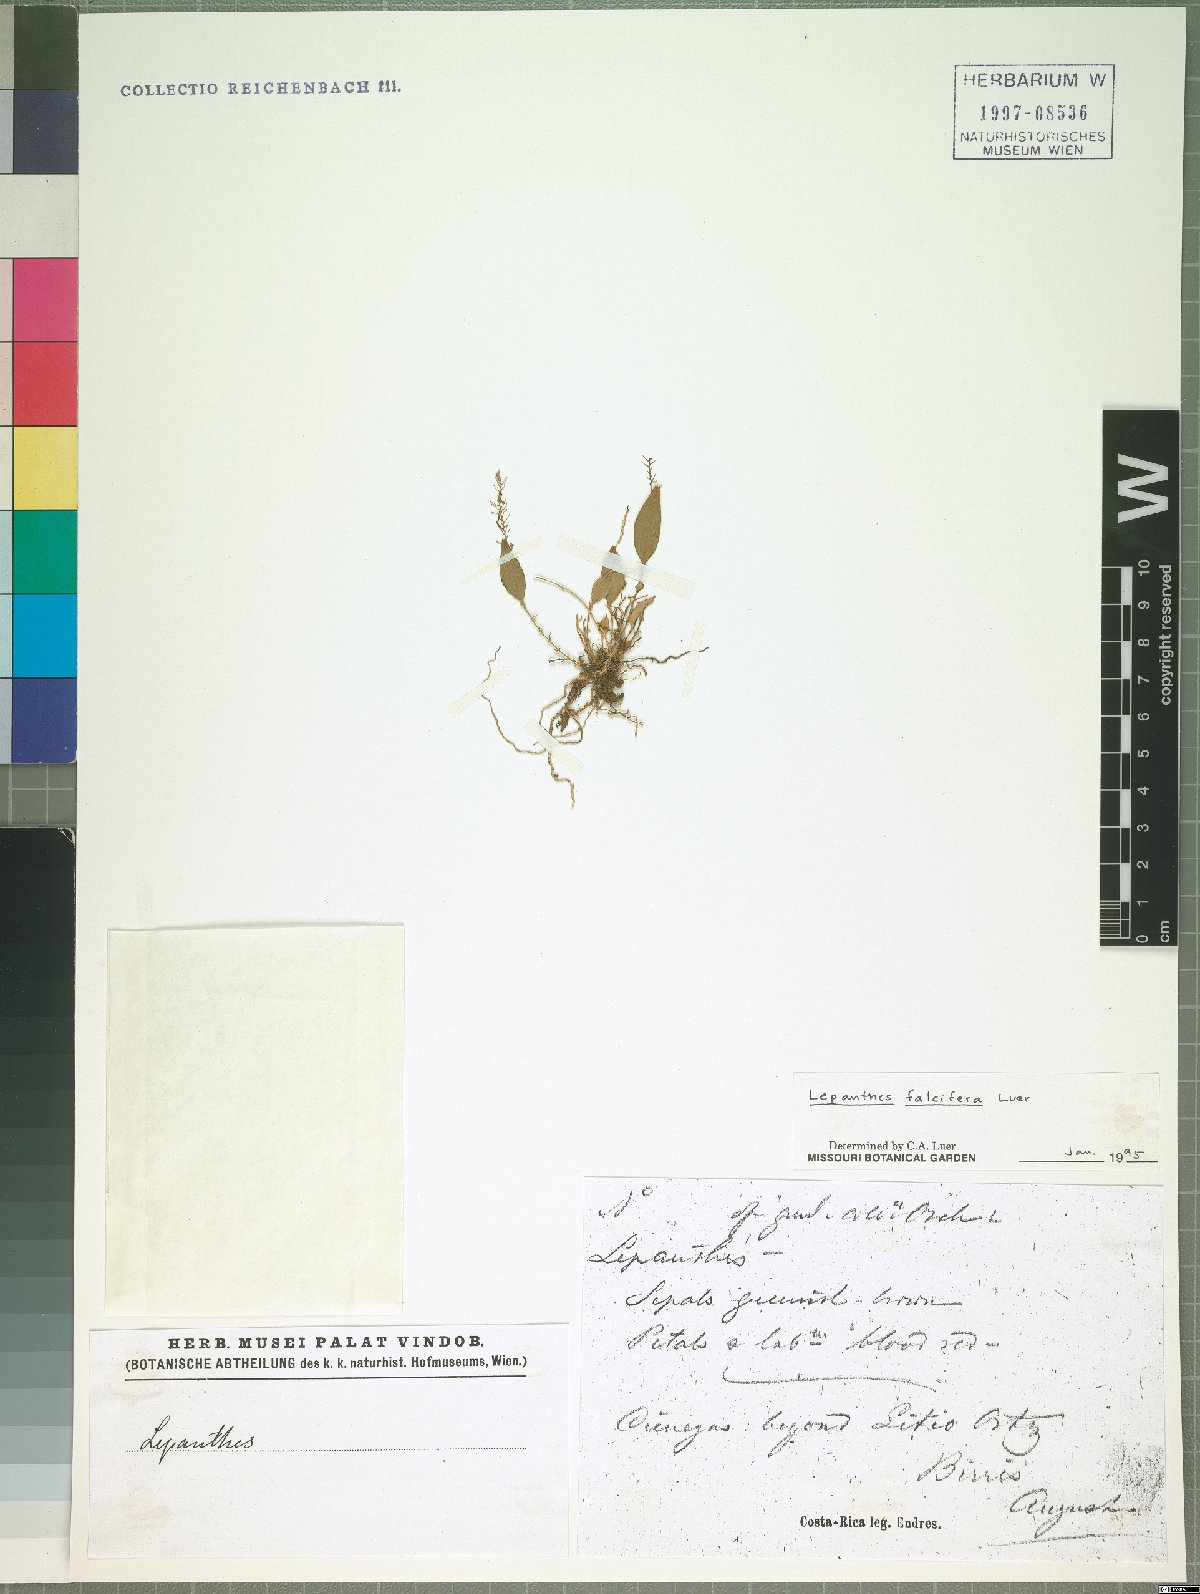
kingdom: Plantae
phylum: Tracheophyta
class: Liliopsida
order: Asparagales
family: Orchidaceae
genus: Lepanthes
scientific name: Lepanthes falcifera
